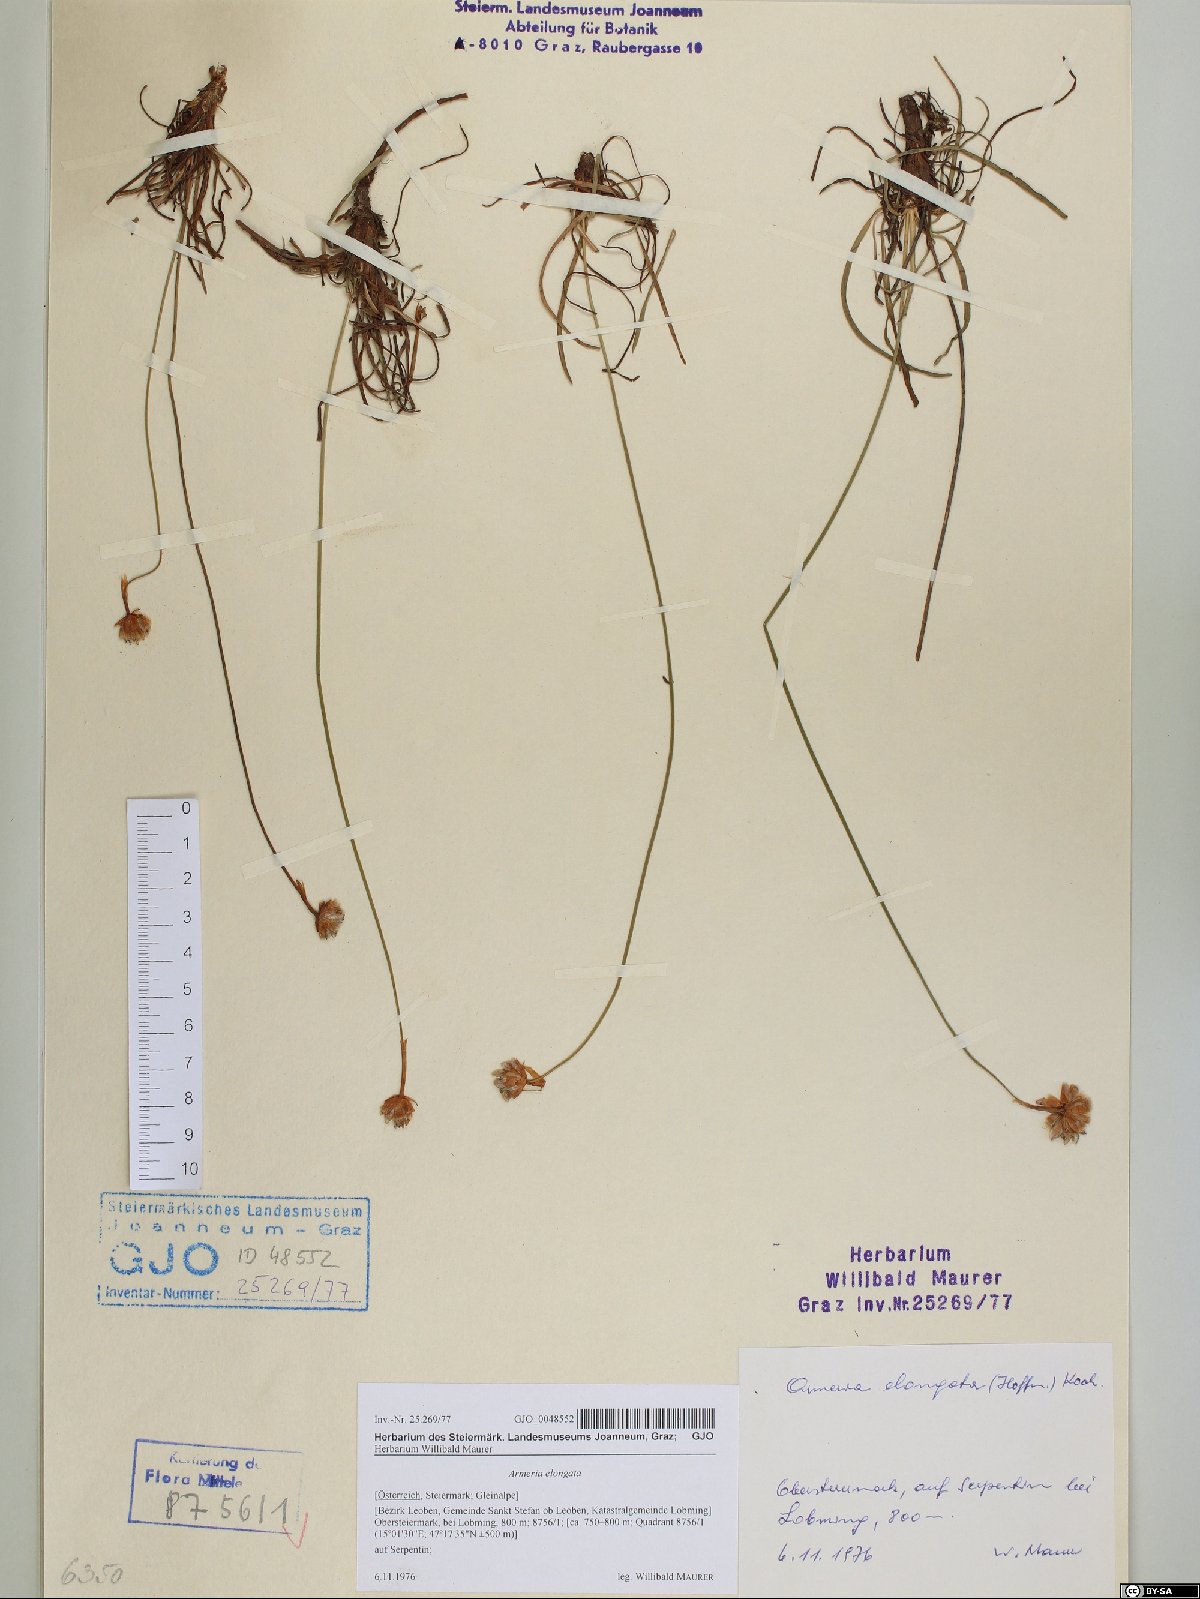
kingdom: Plantae
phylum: Tracheophyta
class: Magnoliopsida
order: Caryophyllales
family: Plumbaginaceae
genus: Armeria
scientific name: Armeria maritima
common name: Thrift
